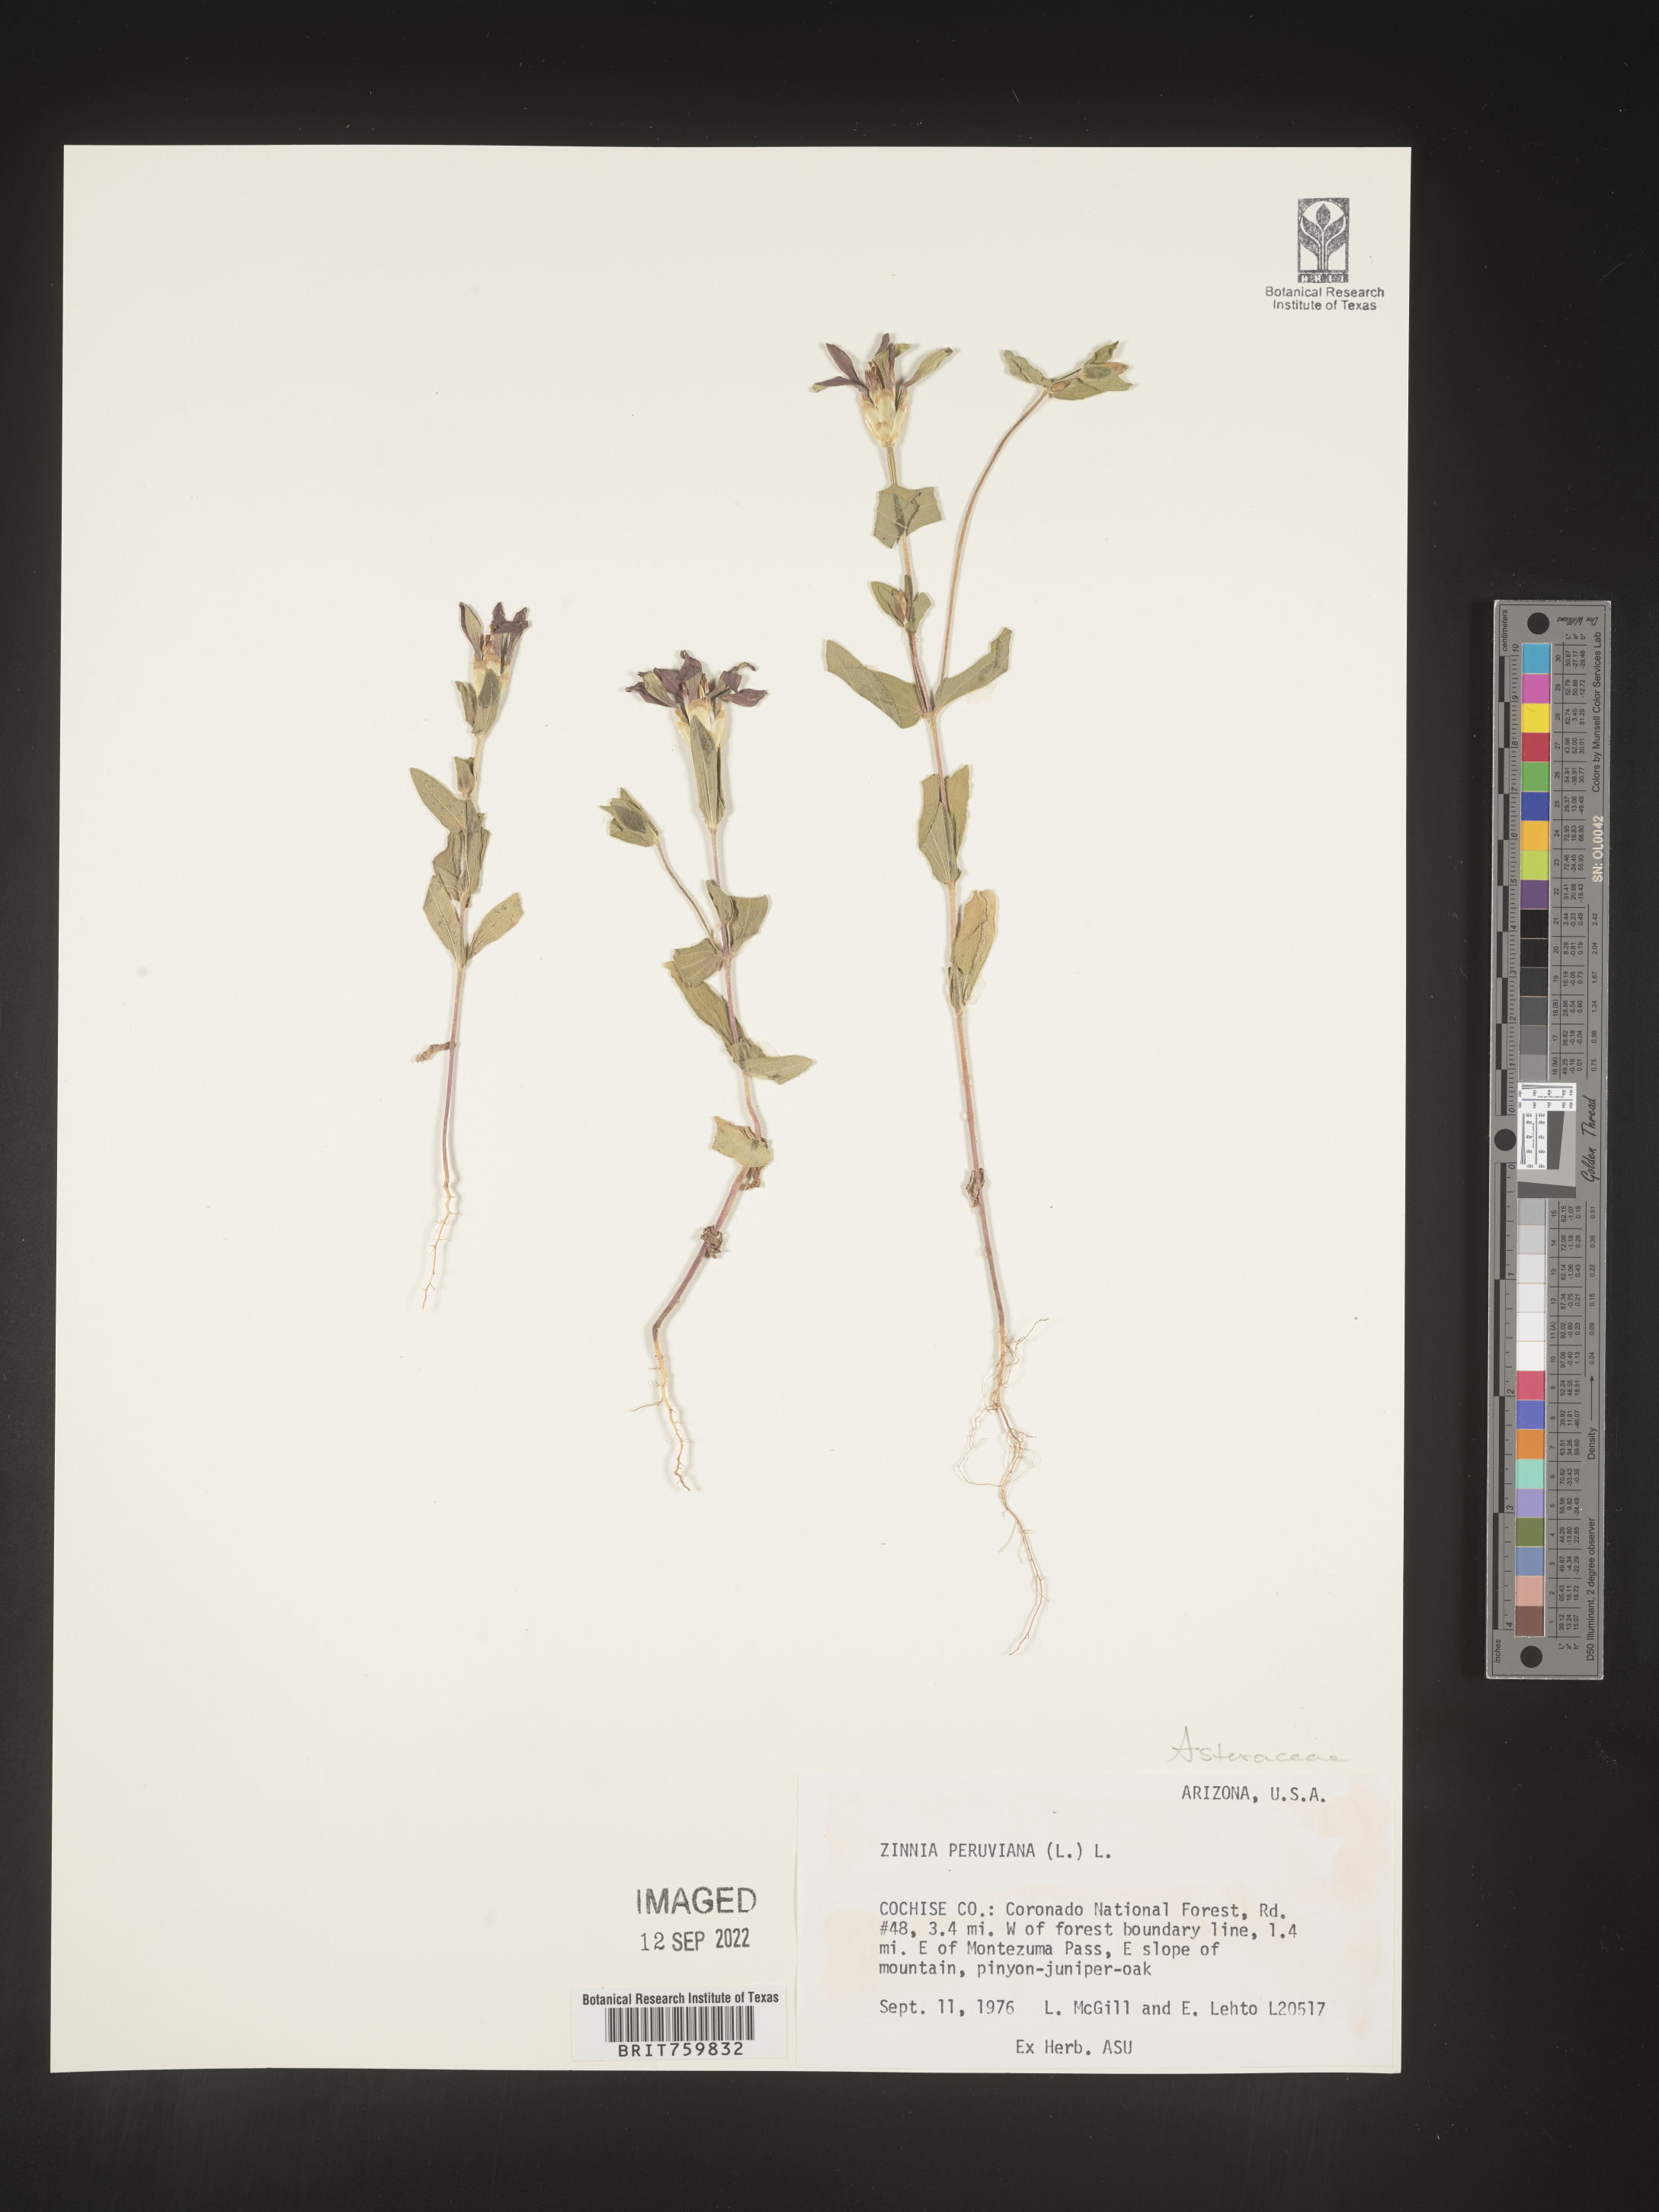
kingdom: Plantae
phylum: Tracheophyta
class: Magnoliopsida
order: Asterales
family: Asteraceae
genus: Zinnia
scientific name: Zinnia
